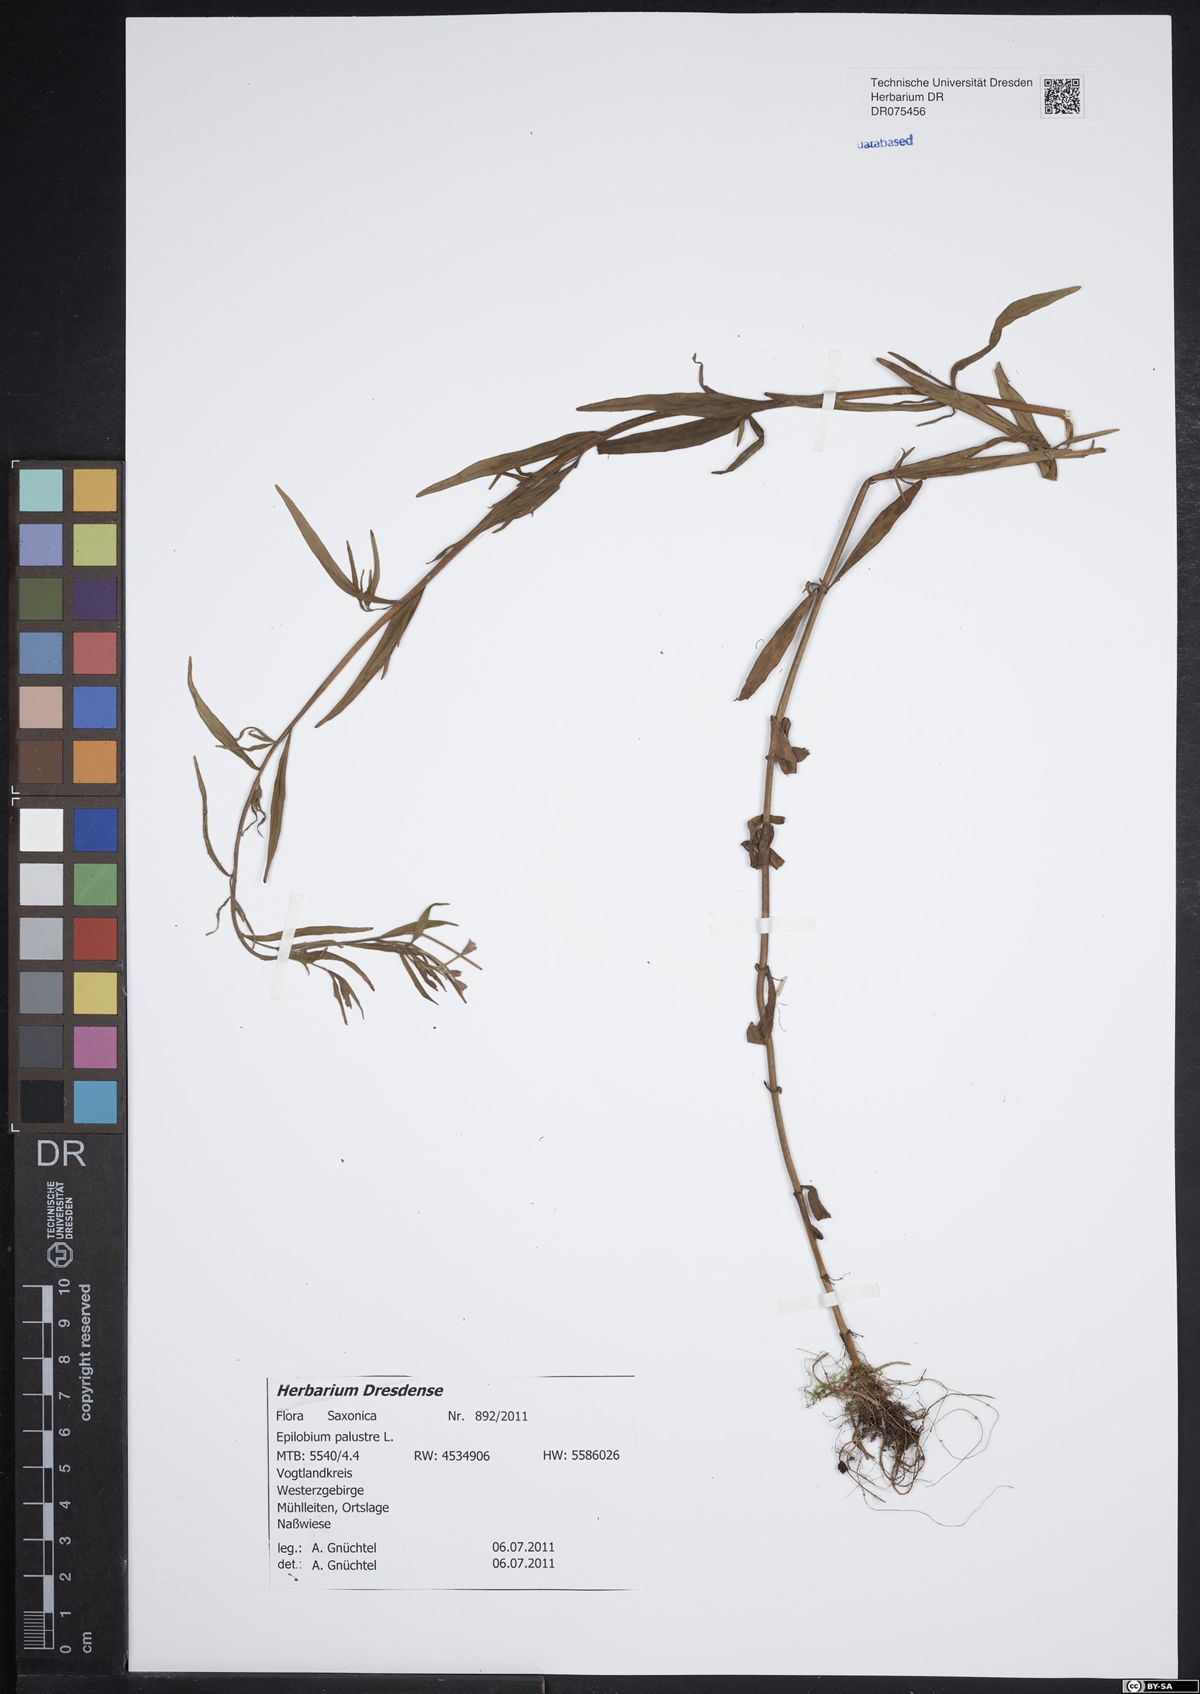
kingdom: Plantae
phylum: Tracheophyta
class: Magnoliopsida
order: Myrtales
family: Onagraceae
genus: Epilobium
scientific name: Epilobium palustre
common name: Marsh willowherb
